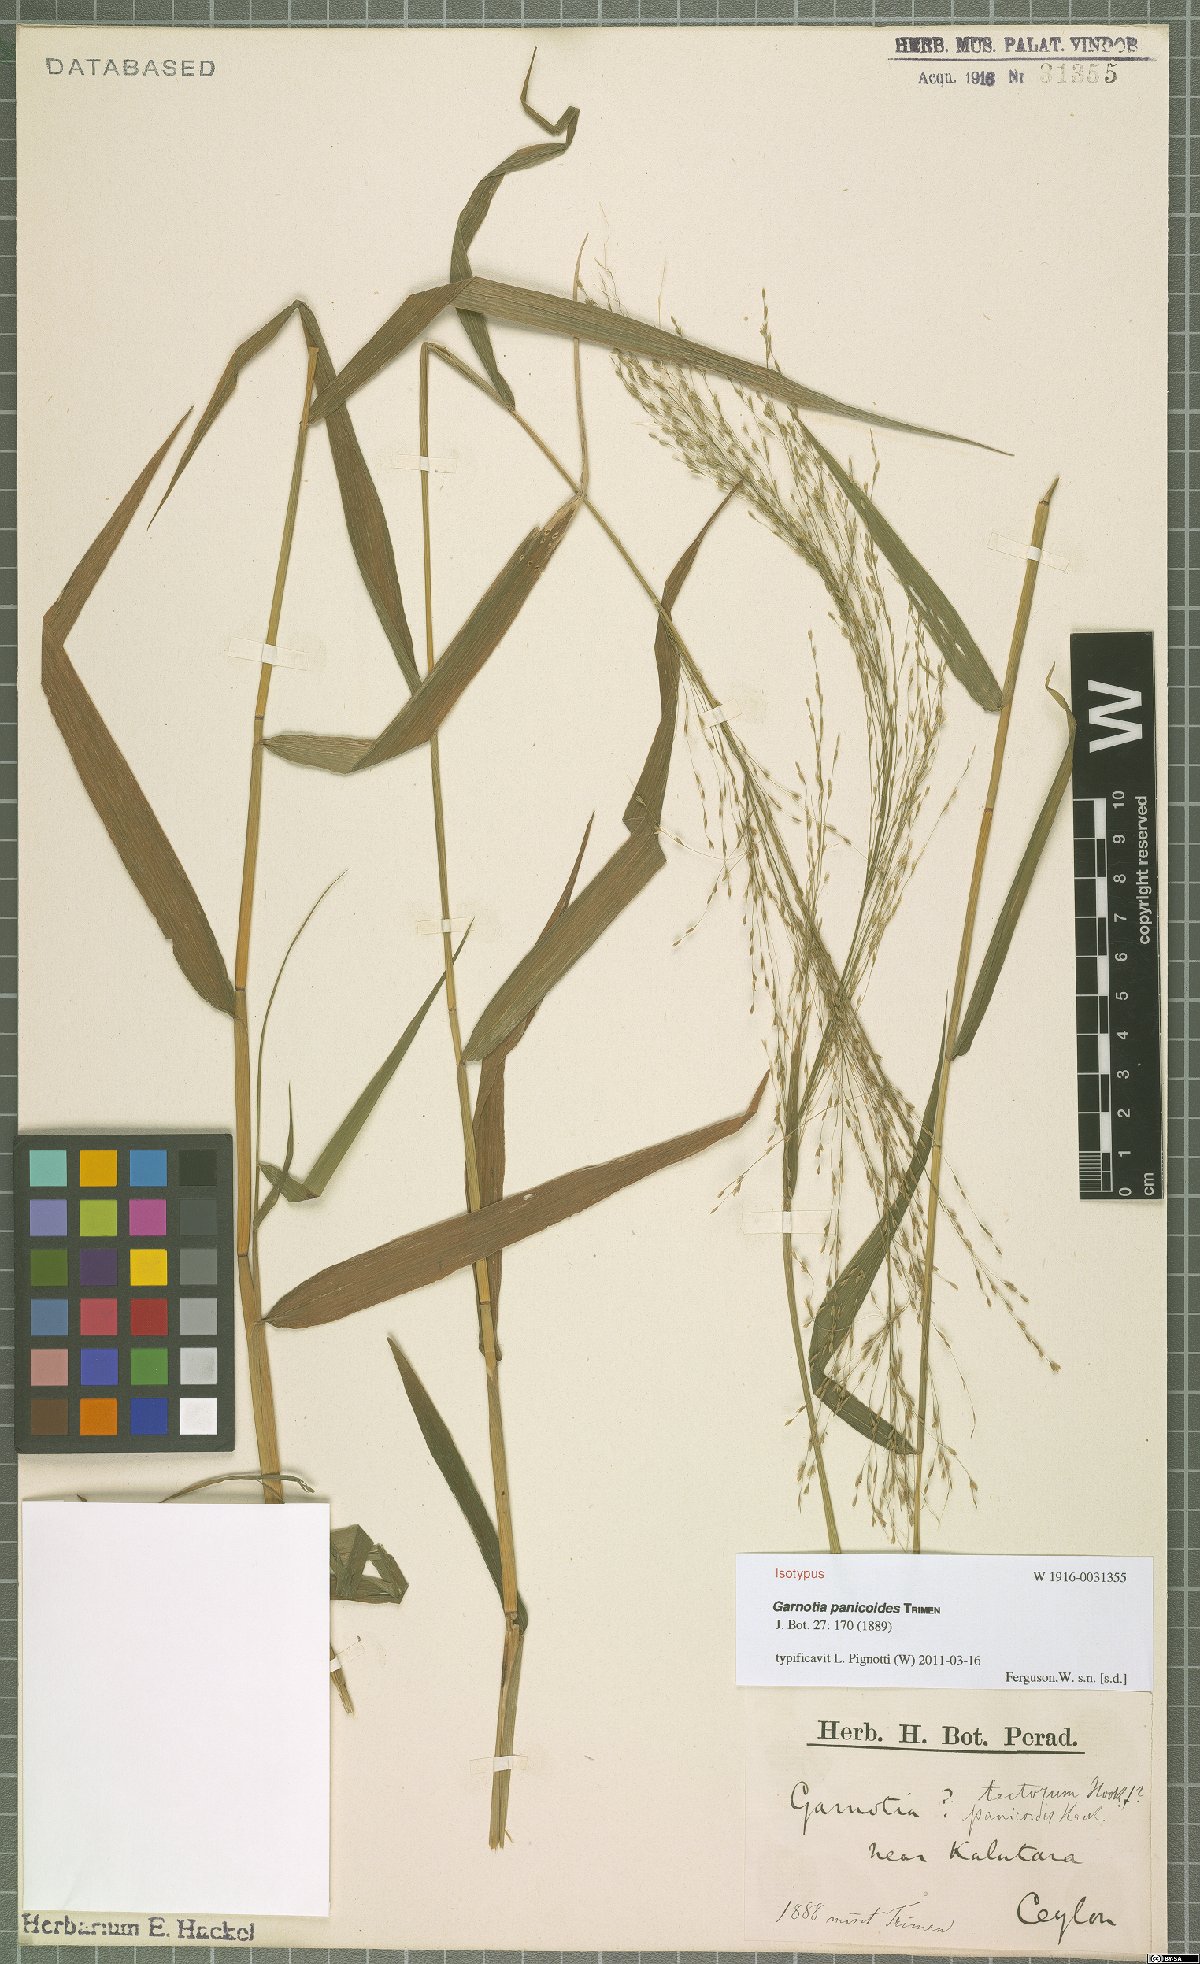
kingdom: Plantae
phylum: Tracheophyta
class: Liliopsida
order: Poales
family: Poaceae
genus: Garnotia
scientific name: Garnotia panicoides
